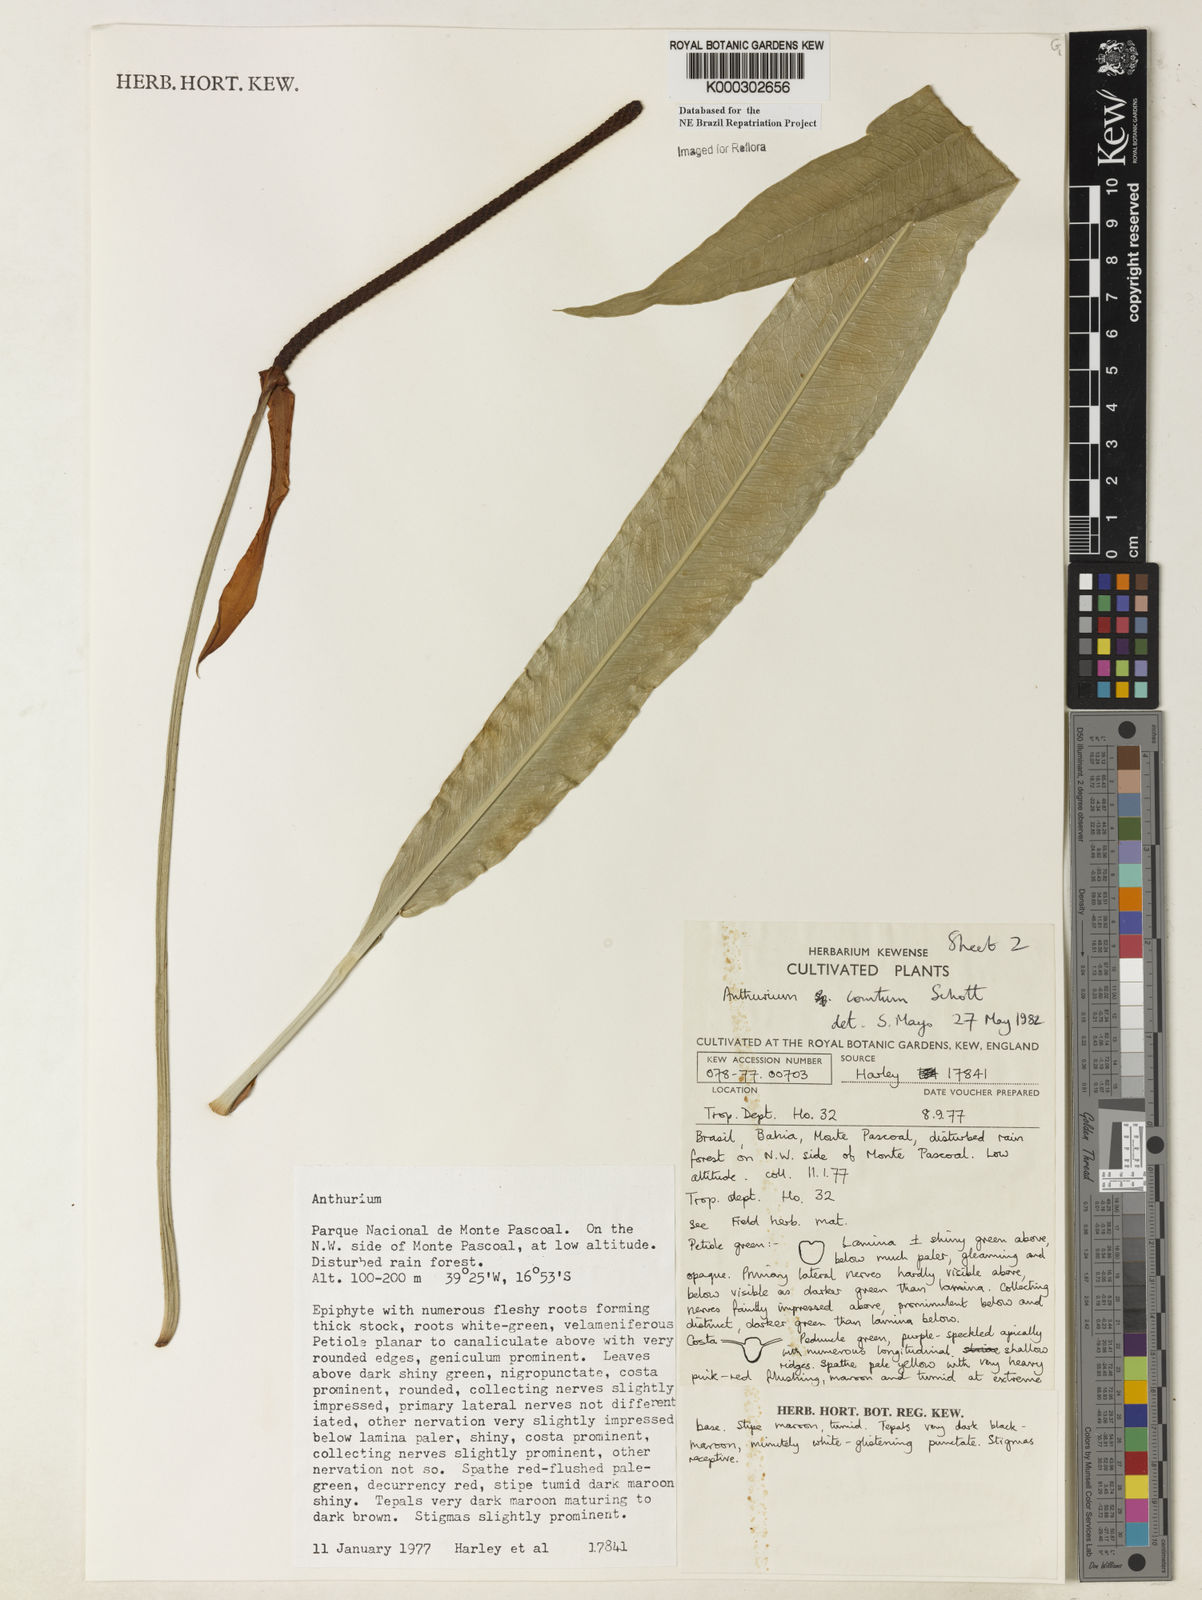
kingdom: Plantae
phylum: Tracheophyta
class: Liliopsida
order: Alismatales
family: Araceae
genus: Anthurium
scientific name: Anthurium comtum
